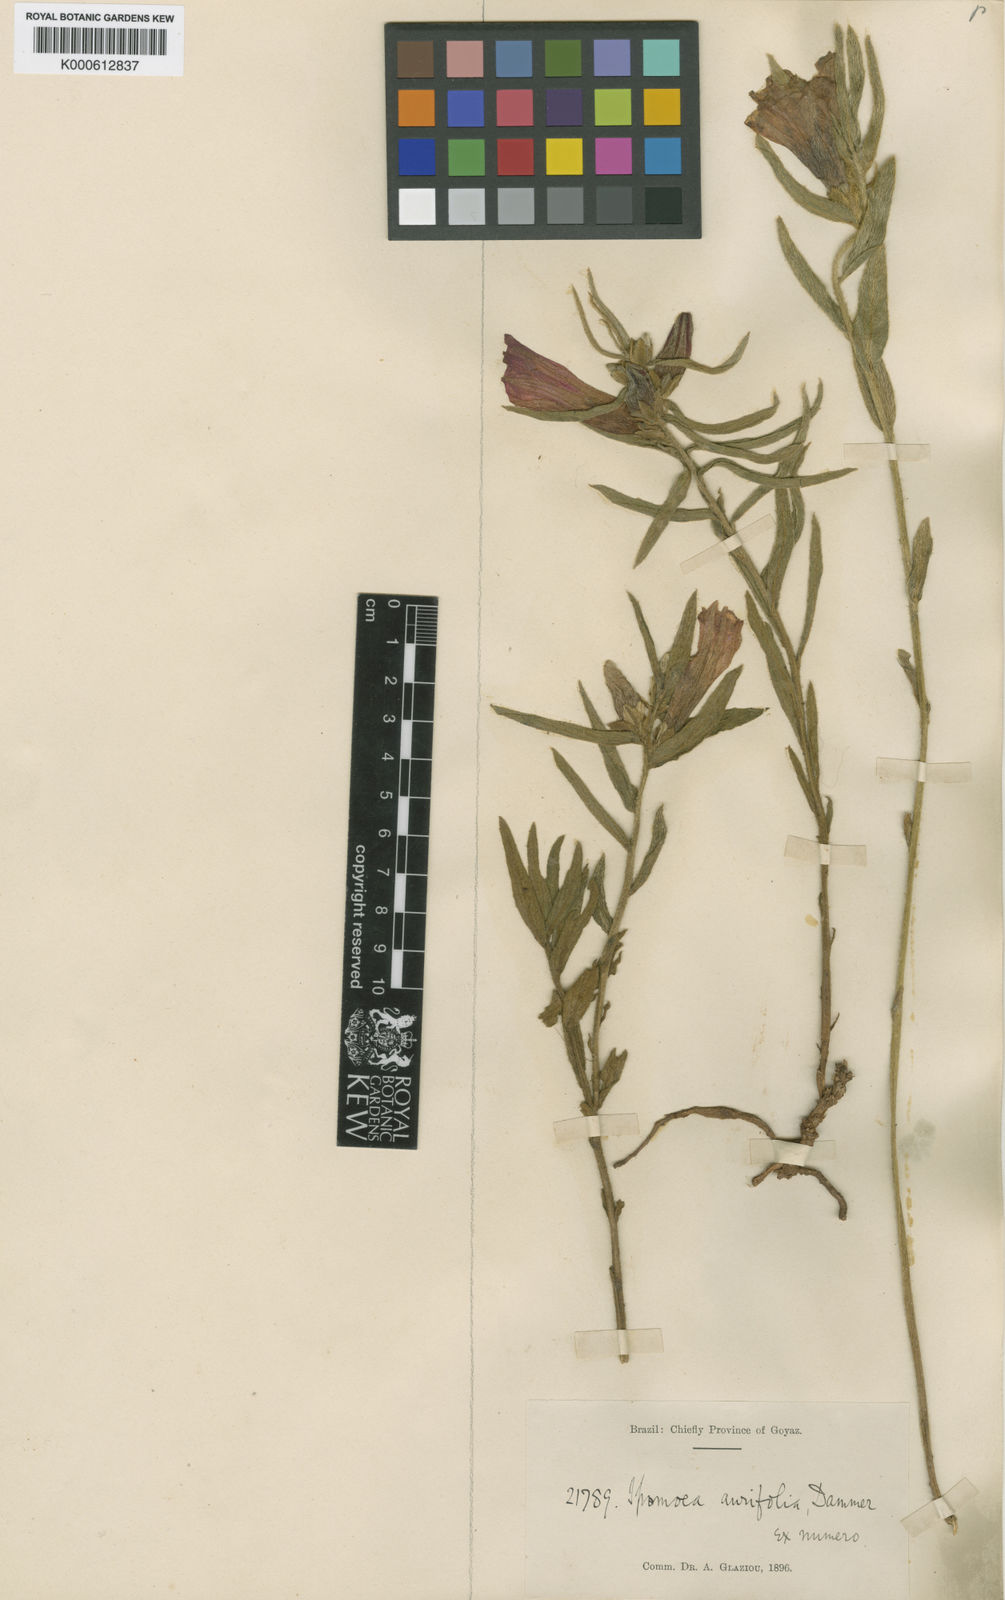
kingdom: Plantae
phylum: Tracheophyta
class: Magnoliopsida
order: Solanales
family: Convolvulaceae
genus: Ipomoea
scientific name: Ipomoea aurifolia
